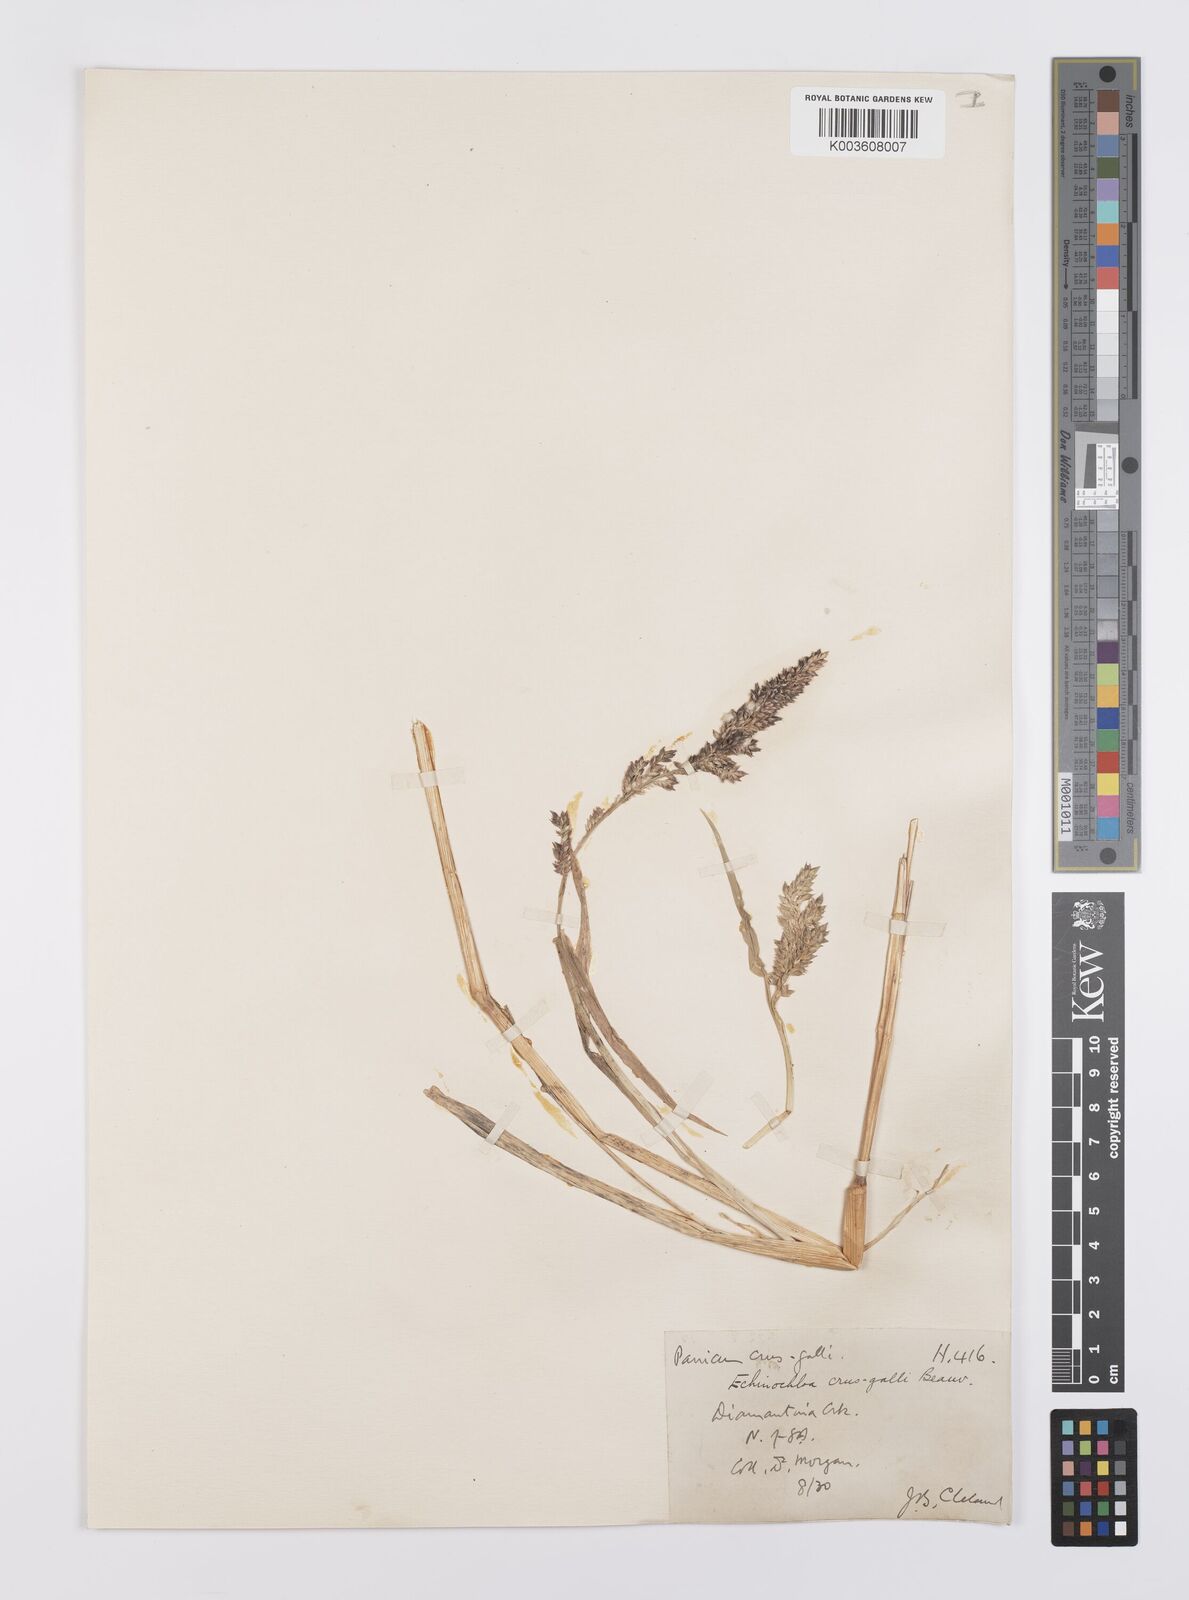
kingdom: Plantae
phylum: Tracheophyta
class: Liliopsida
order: Poales
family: Poaceae
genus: Echinochloa
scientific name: Echinochloa crus-galli
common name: Cockspur
